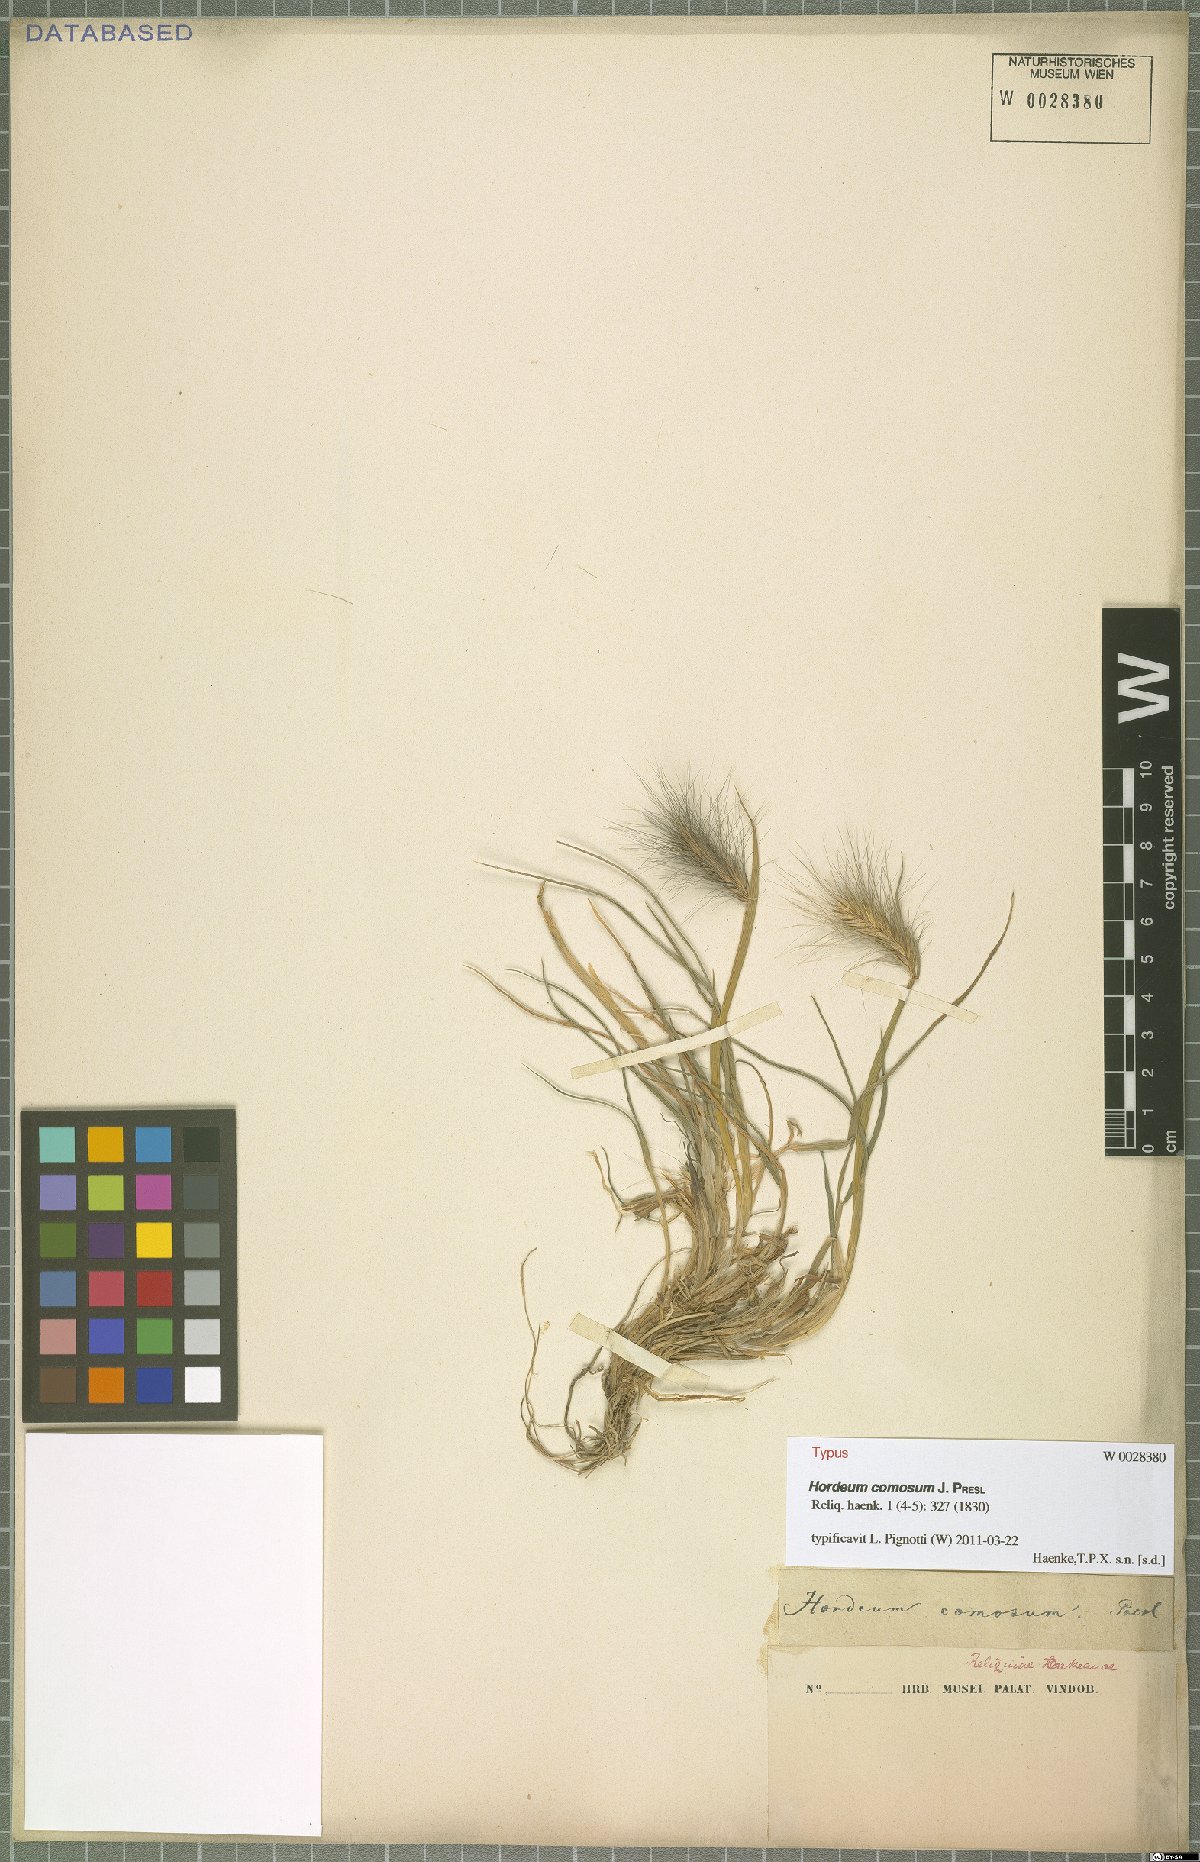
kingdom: Plantae
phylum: Tracheophyta
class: Liliopsida
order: Poales
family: Poaceae
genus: Hordeum
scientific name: Hordeum comosum
